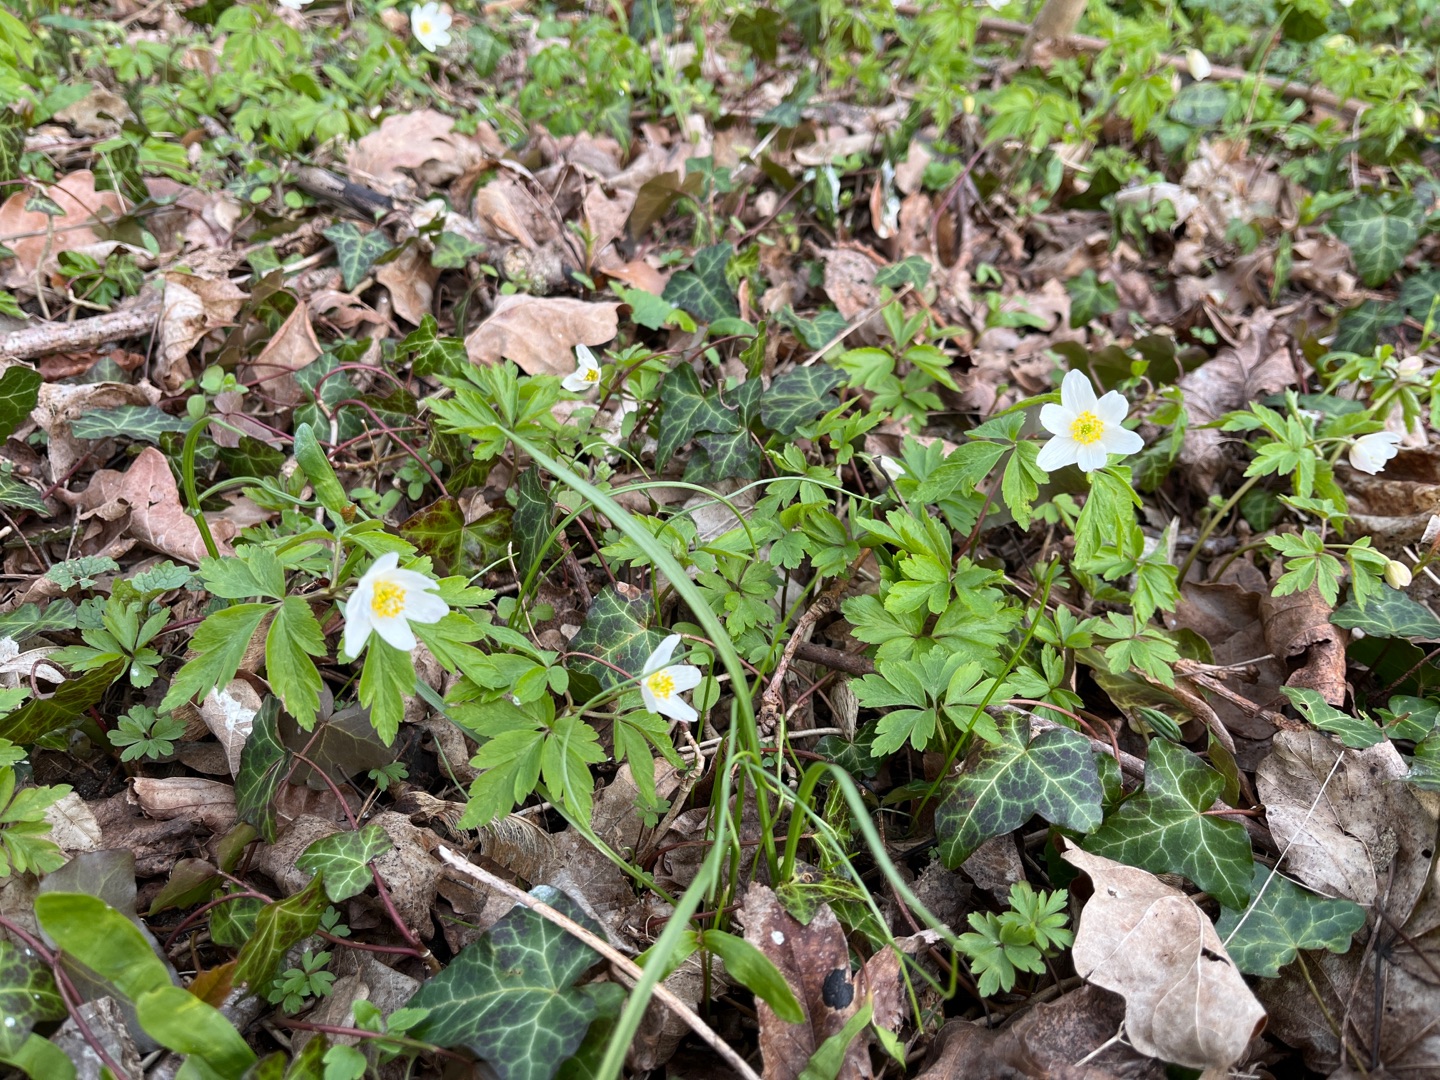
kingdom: Plantae
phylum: Tracheophyta
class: Magnoliopsida
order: Ranunculales
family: Ranunculaceae
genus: Anemone
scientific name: Anemone nemorosa
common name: Hvid anemone
